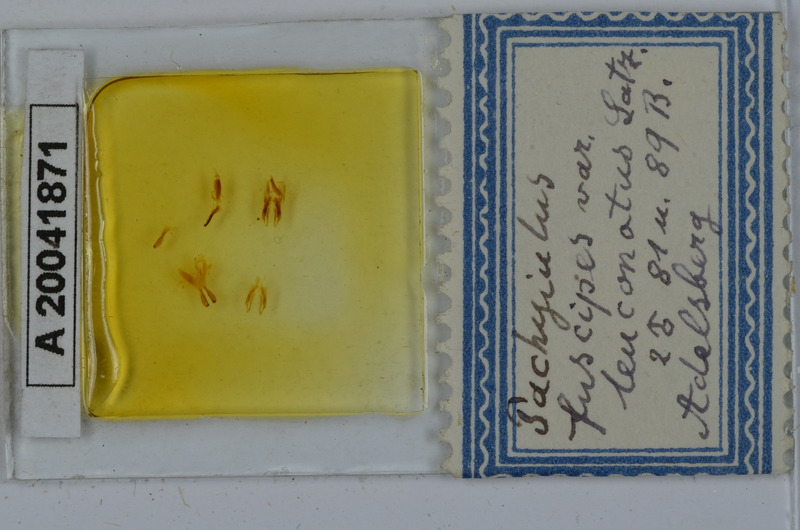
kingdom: Animalia
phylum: Arthropoda
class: Diplopoda
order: Julida
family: Julidae
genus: Acanthoiulus
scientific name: Acanthoiulus fuscipes
